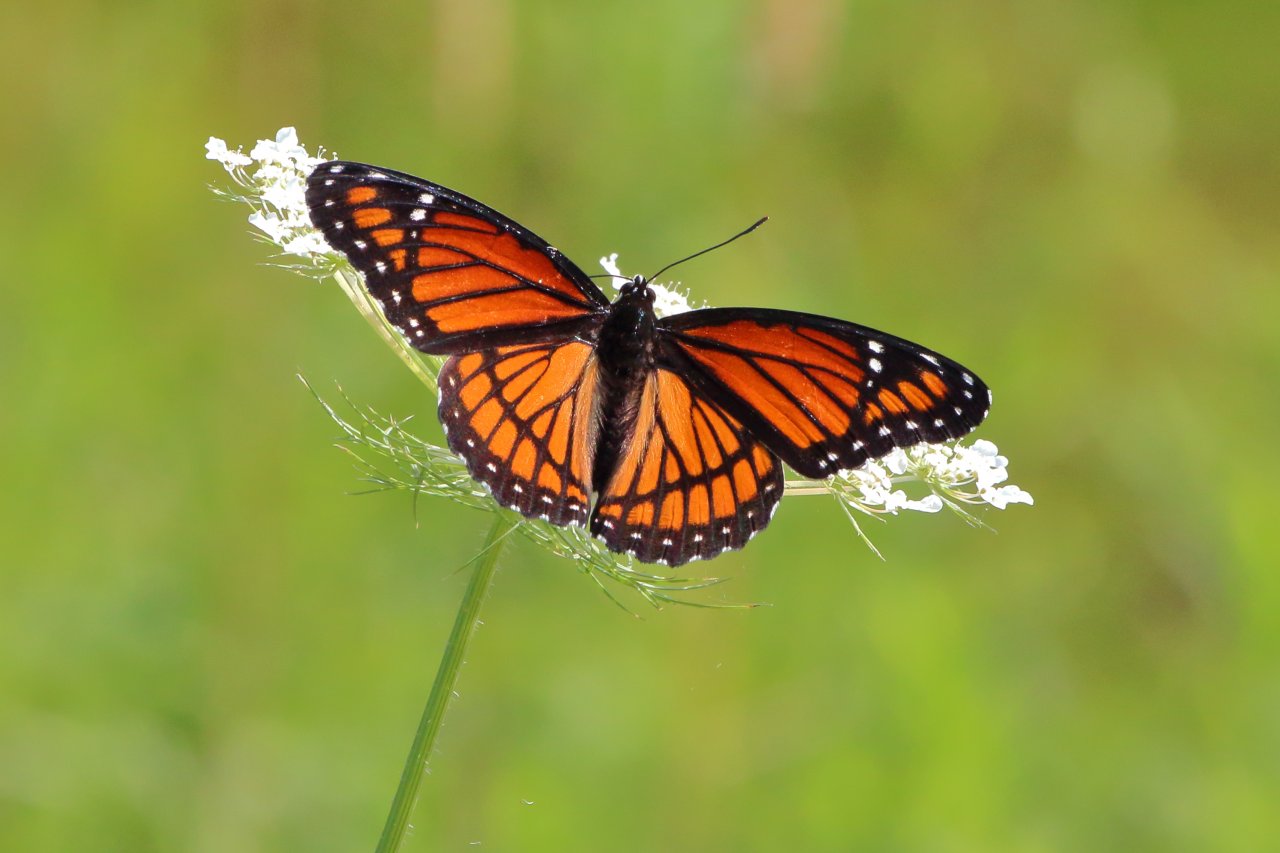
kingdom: Animalia
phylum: Arthropoda
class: Insecta
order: Lepidoptera
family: Nymphalidae
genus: Limenitis
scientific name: Limenitis archippus
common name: Viceroy
